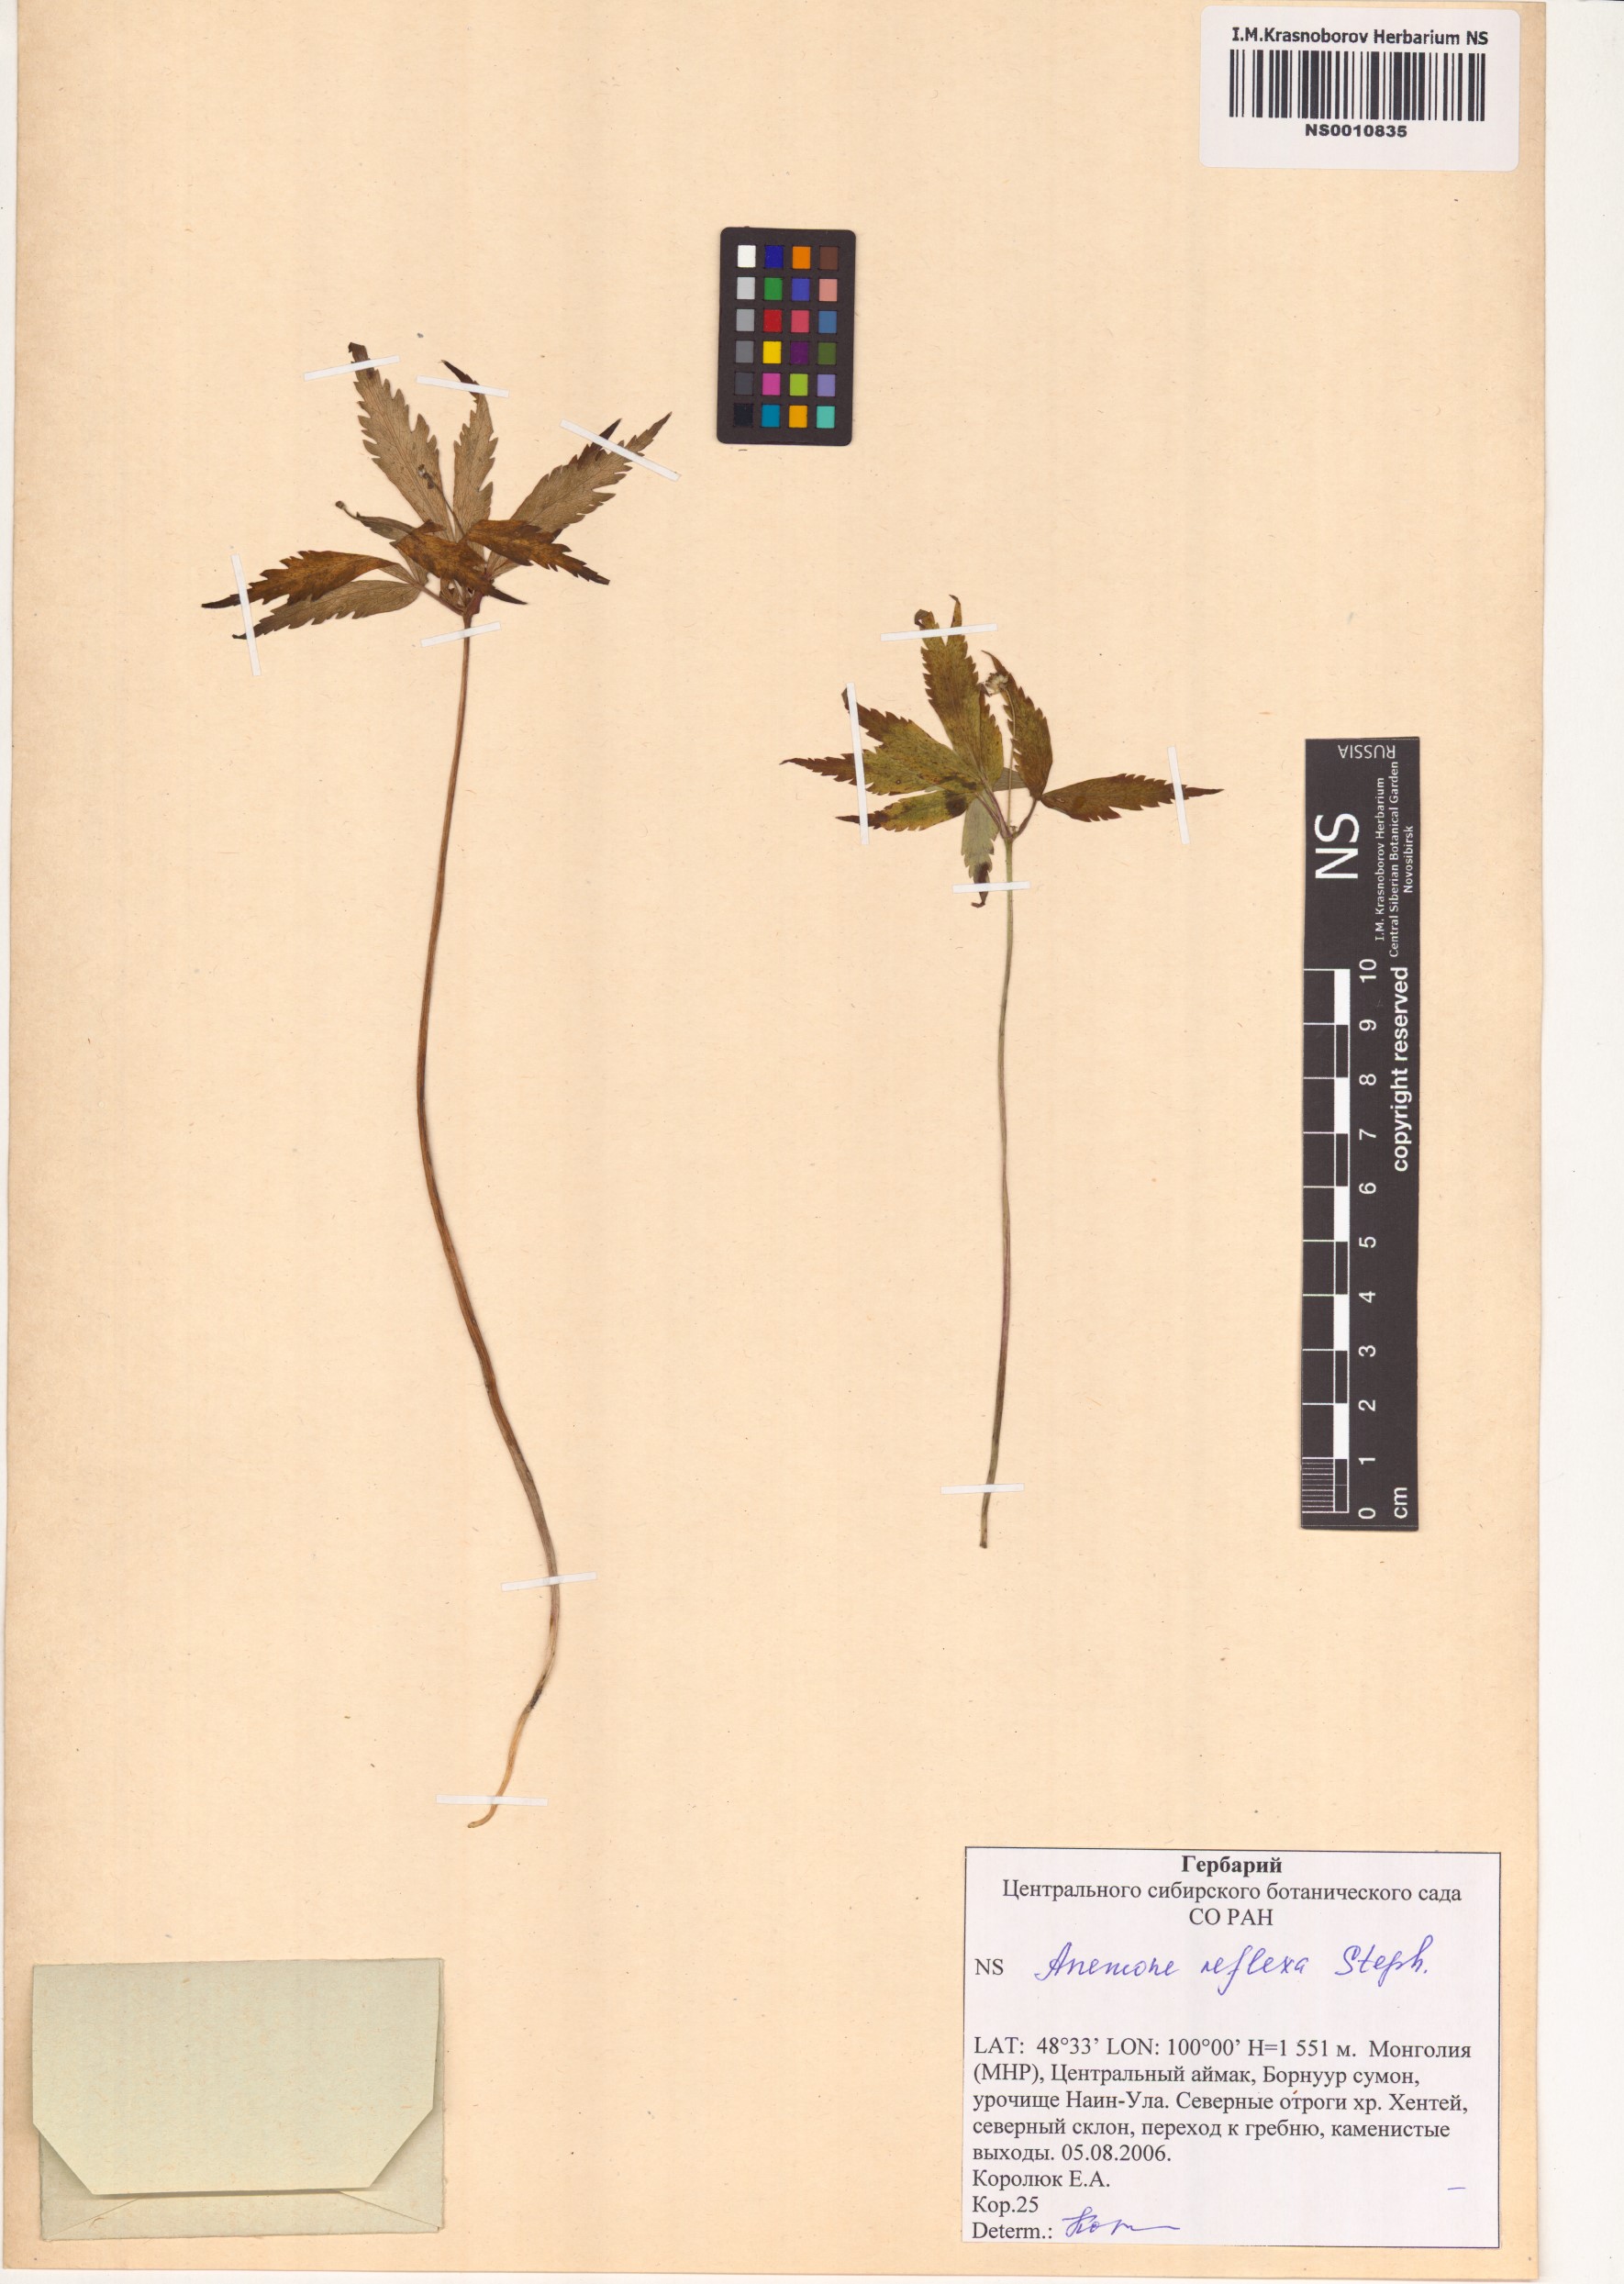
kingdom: Plantae
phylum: Tracheophyta
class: Magnoliopsida
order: Ranunculales
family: Ranunculaceae
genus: Anemone
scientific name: Anemone reflexa
